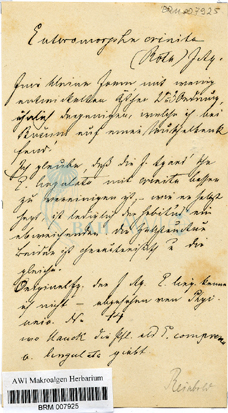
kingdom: Plantae
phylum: Chlorophyta
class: Ulvophyceae
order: Ulvales
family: Ulvaceae
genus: Ulva
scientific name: Ulva clathrata
